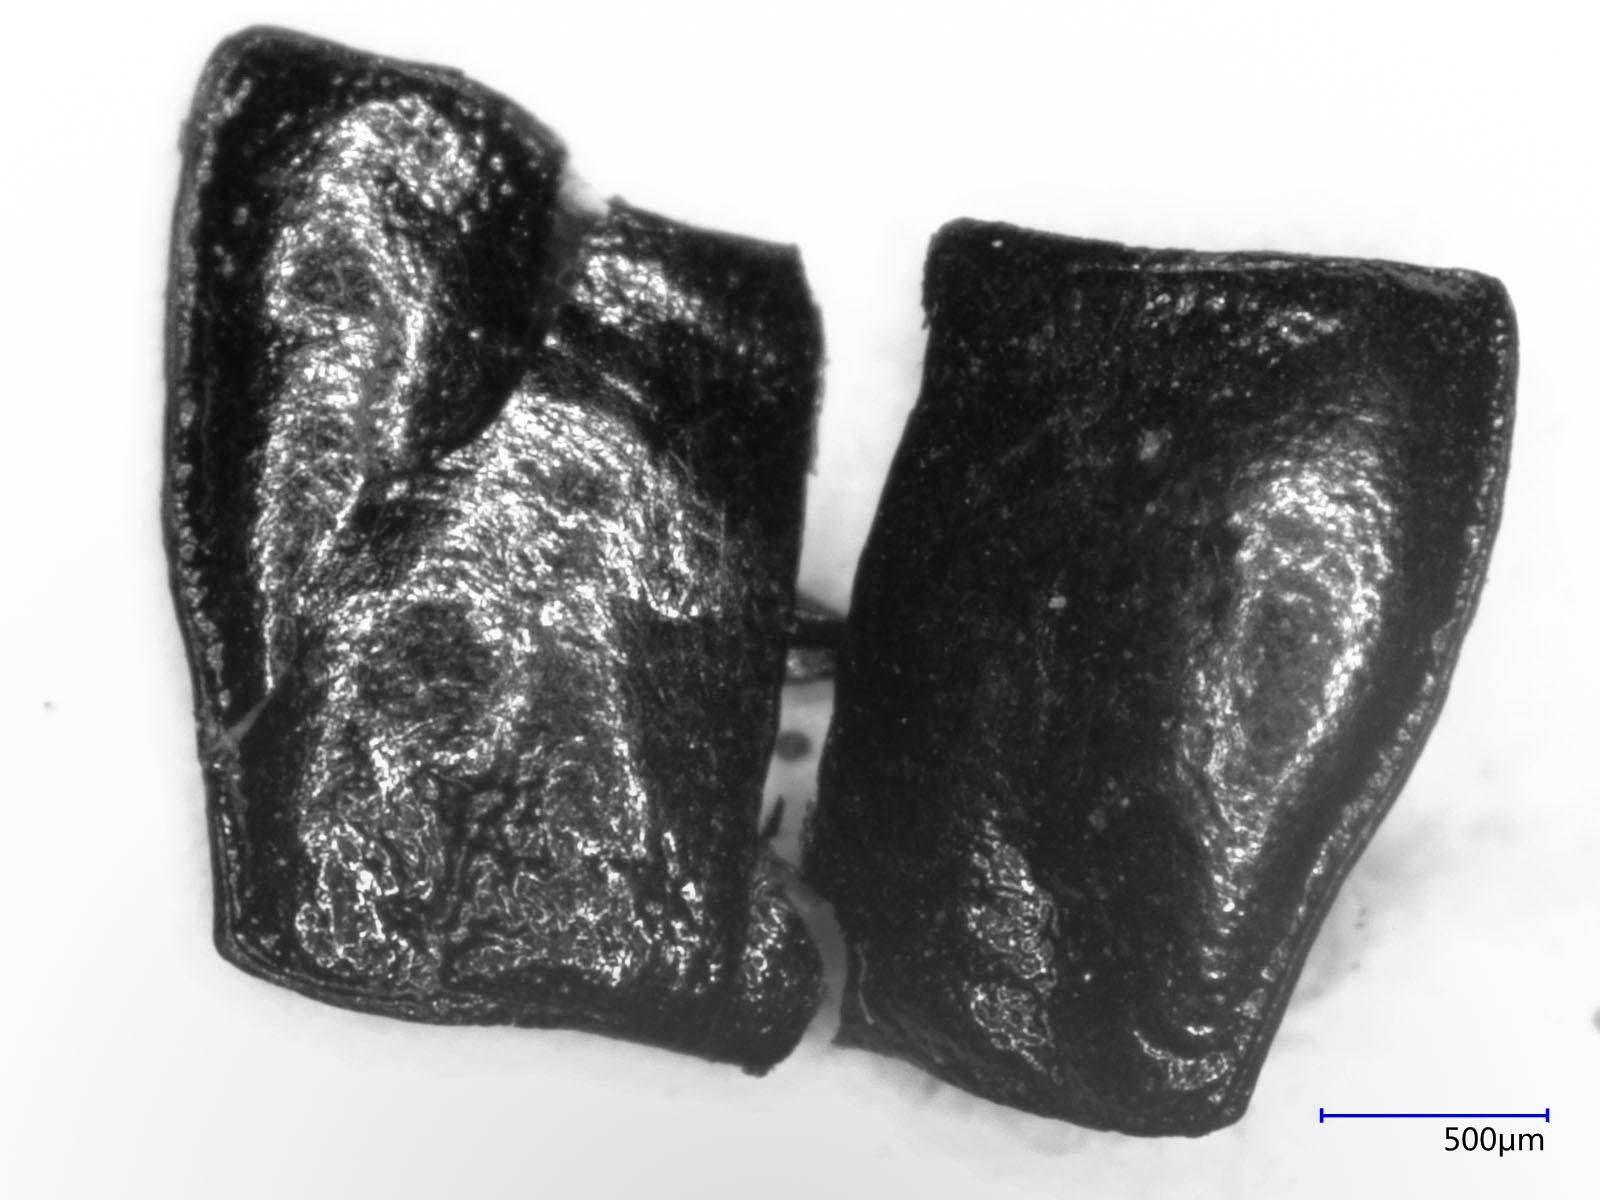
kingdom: Animalia
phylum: Arthropoda
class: Insecta
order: Coleoptera
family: Carabidae
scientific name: Carabidae
